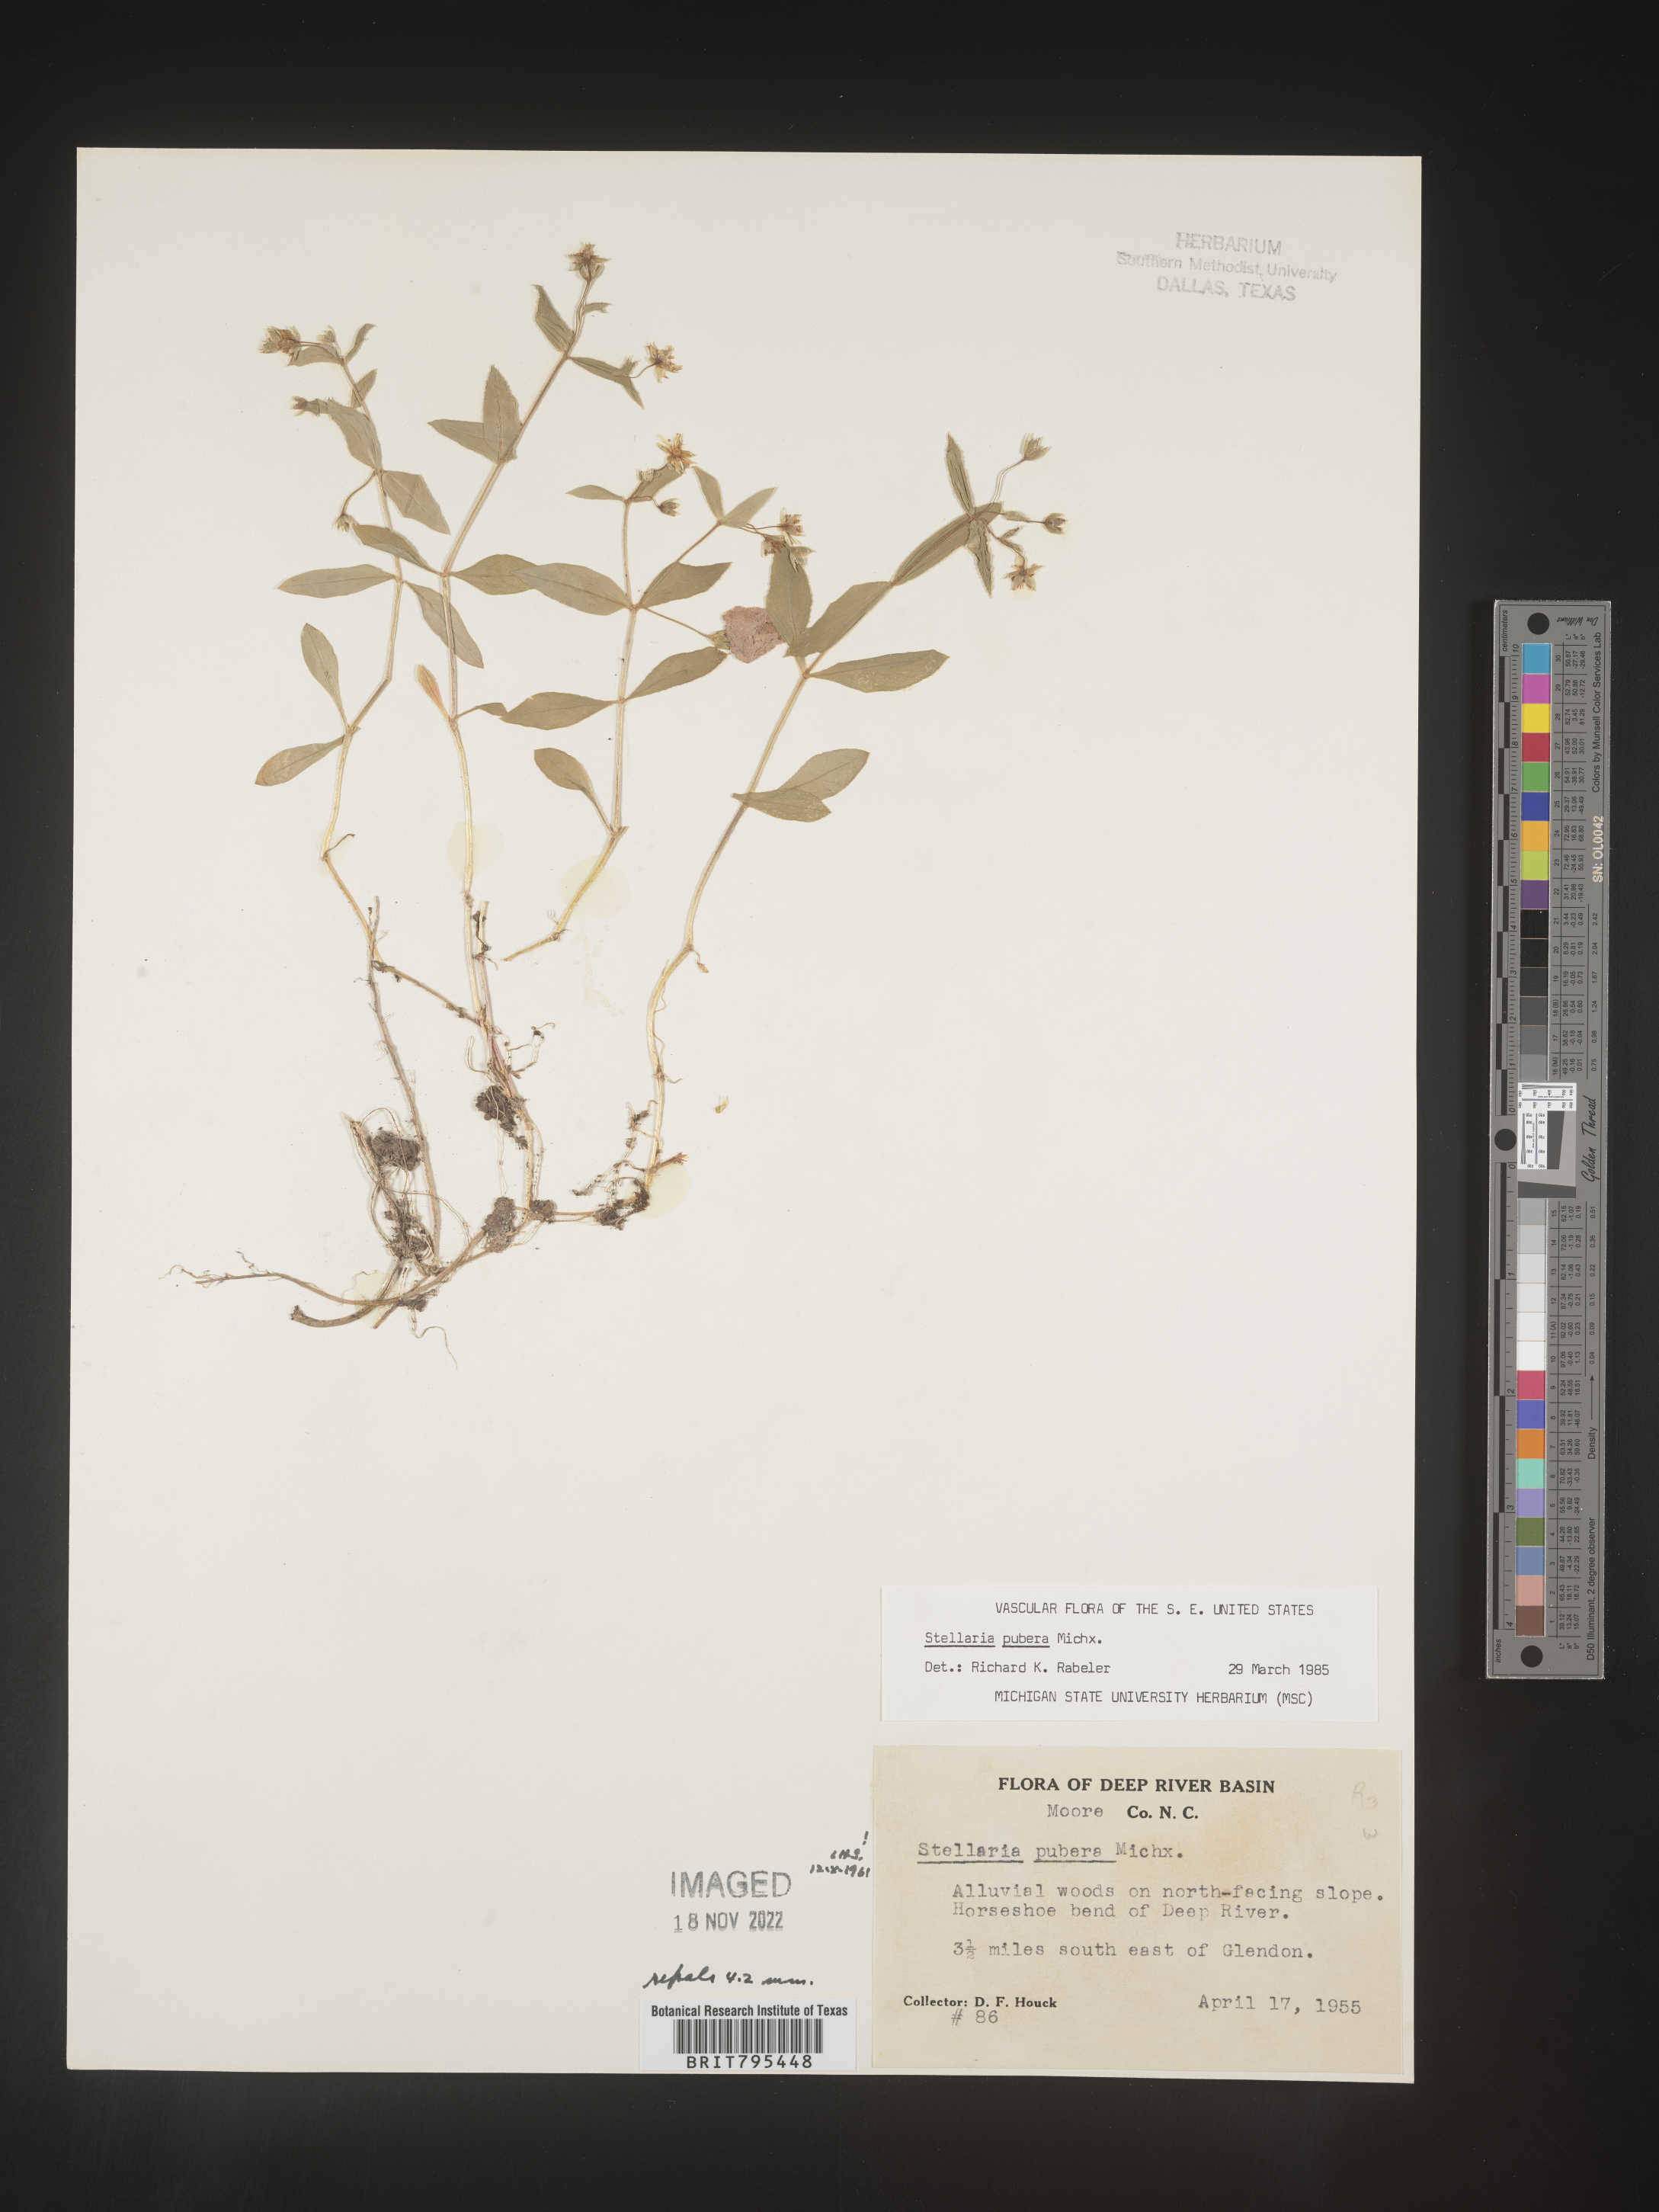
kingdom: Plantae
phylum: Tracheophyta
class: Magnoliopsida
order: Caryophyllales
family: Caryophyllaceae
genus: Stellaria
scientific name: Stellaria pubera
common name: Star chickweed
